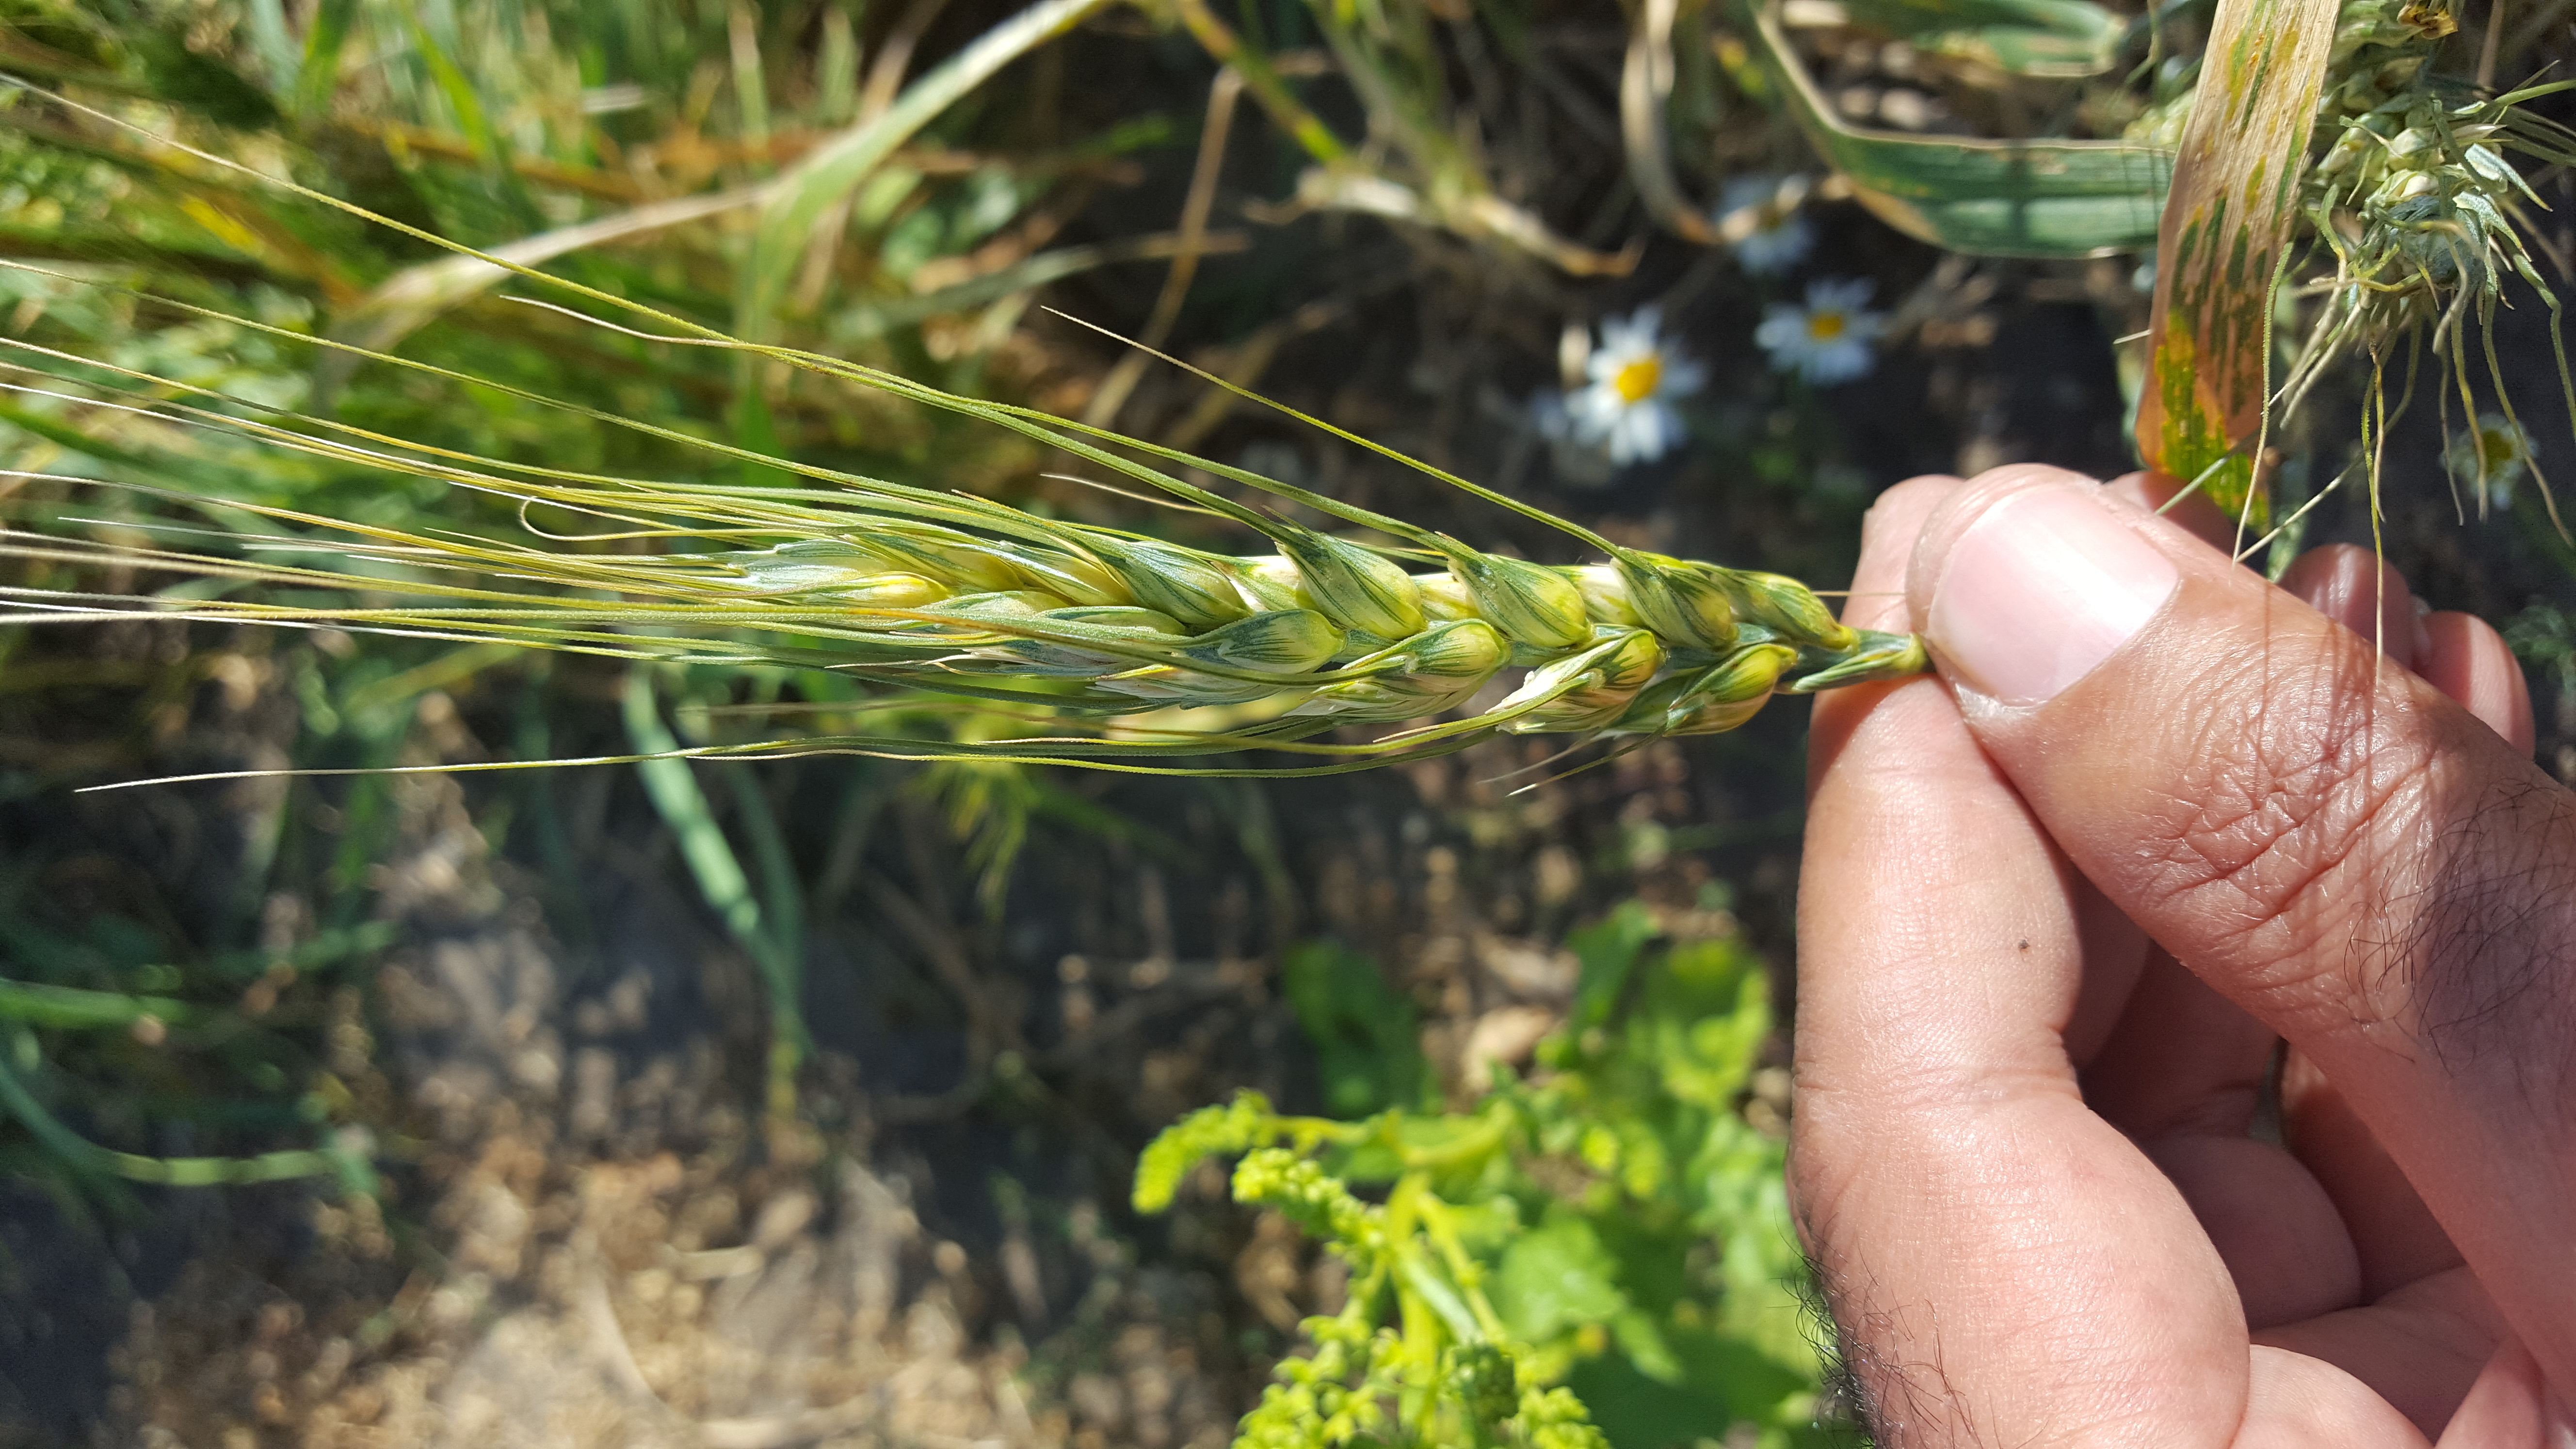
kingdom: Plantae
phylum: Tracheophyta
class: Liliopsida
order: Poales
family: Poaceae
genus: Triticum
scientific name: Triticum aestivum
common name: Common wheat
